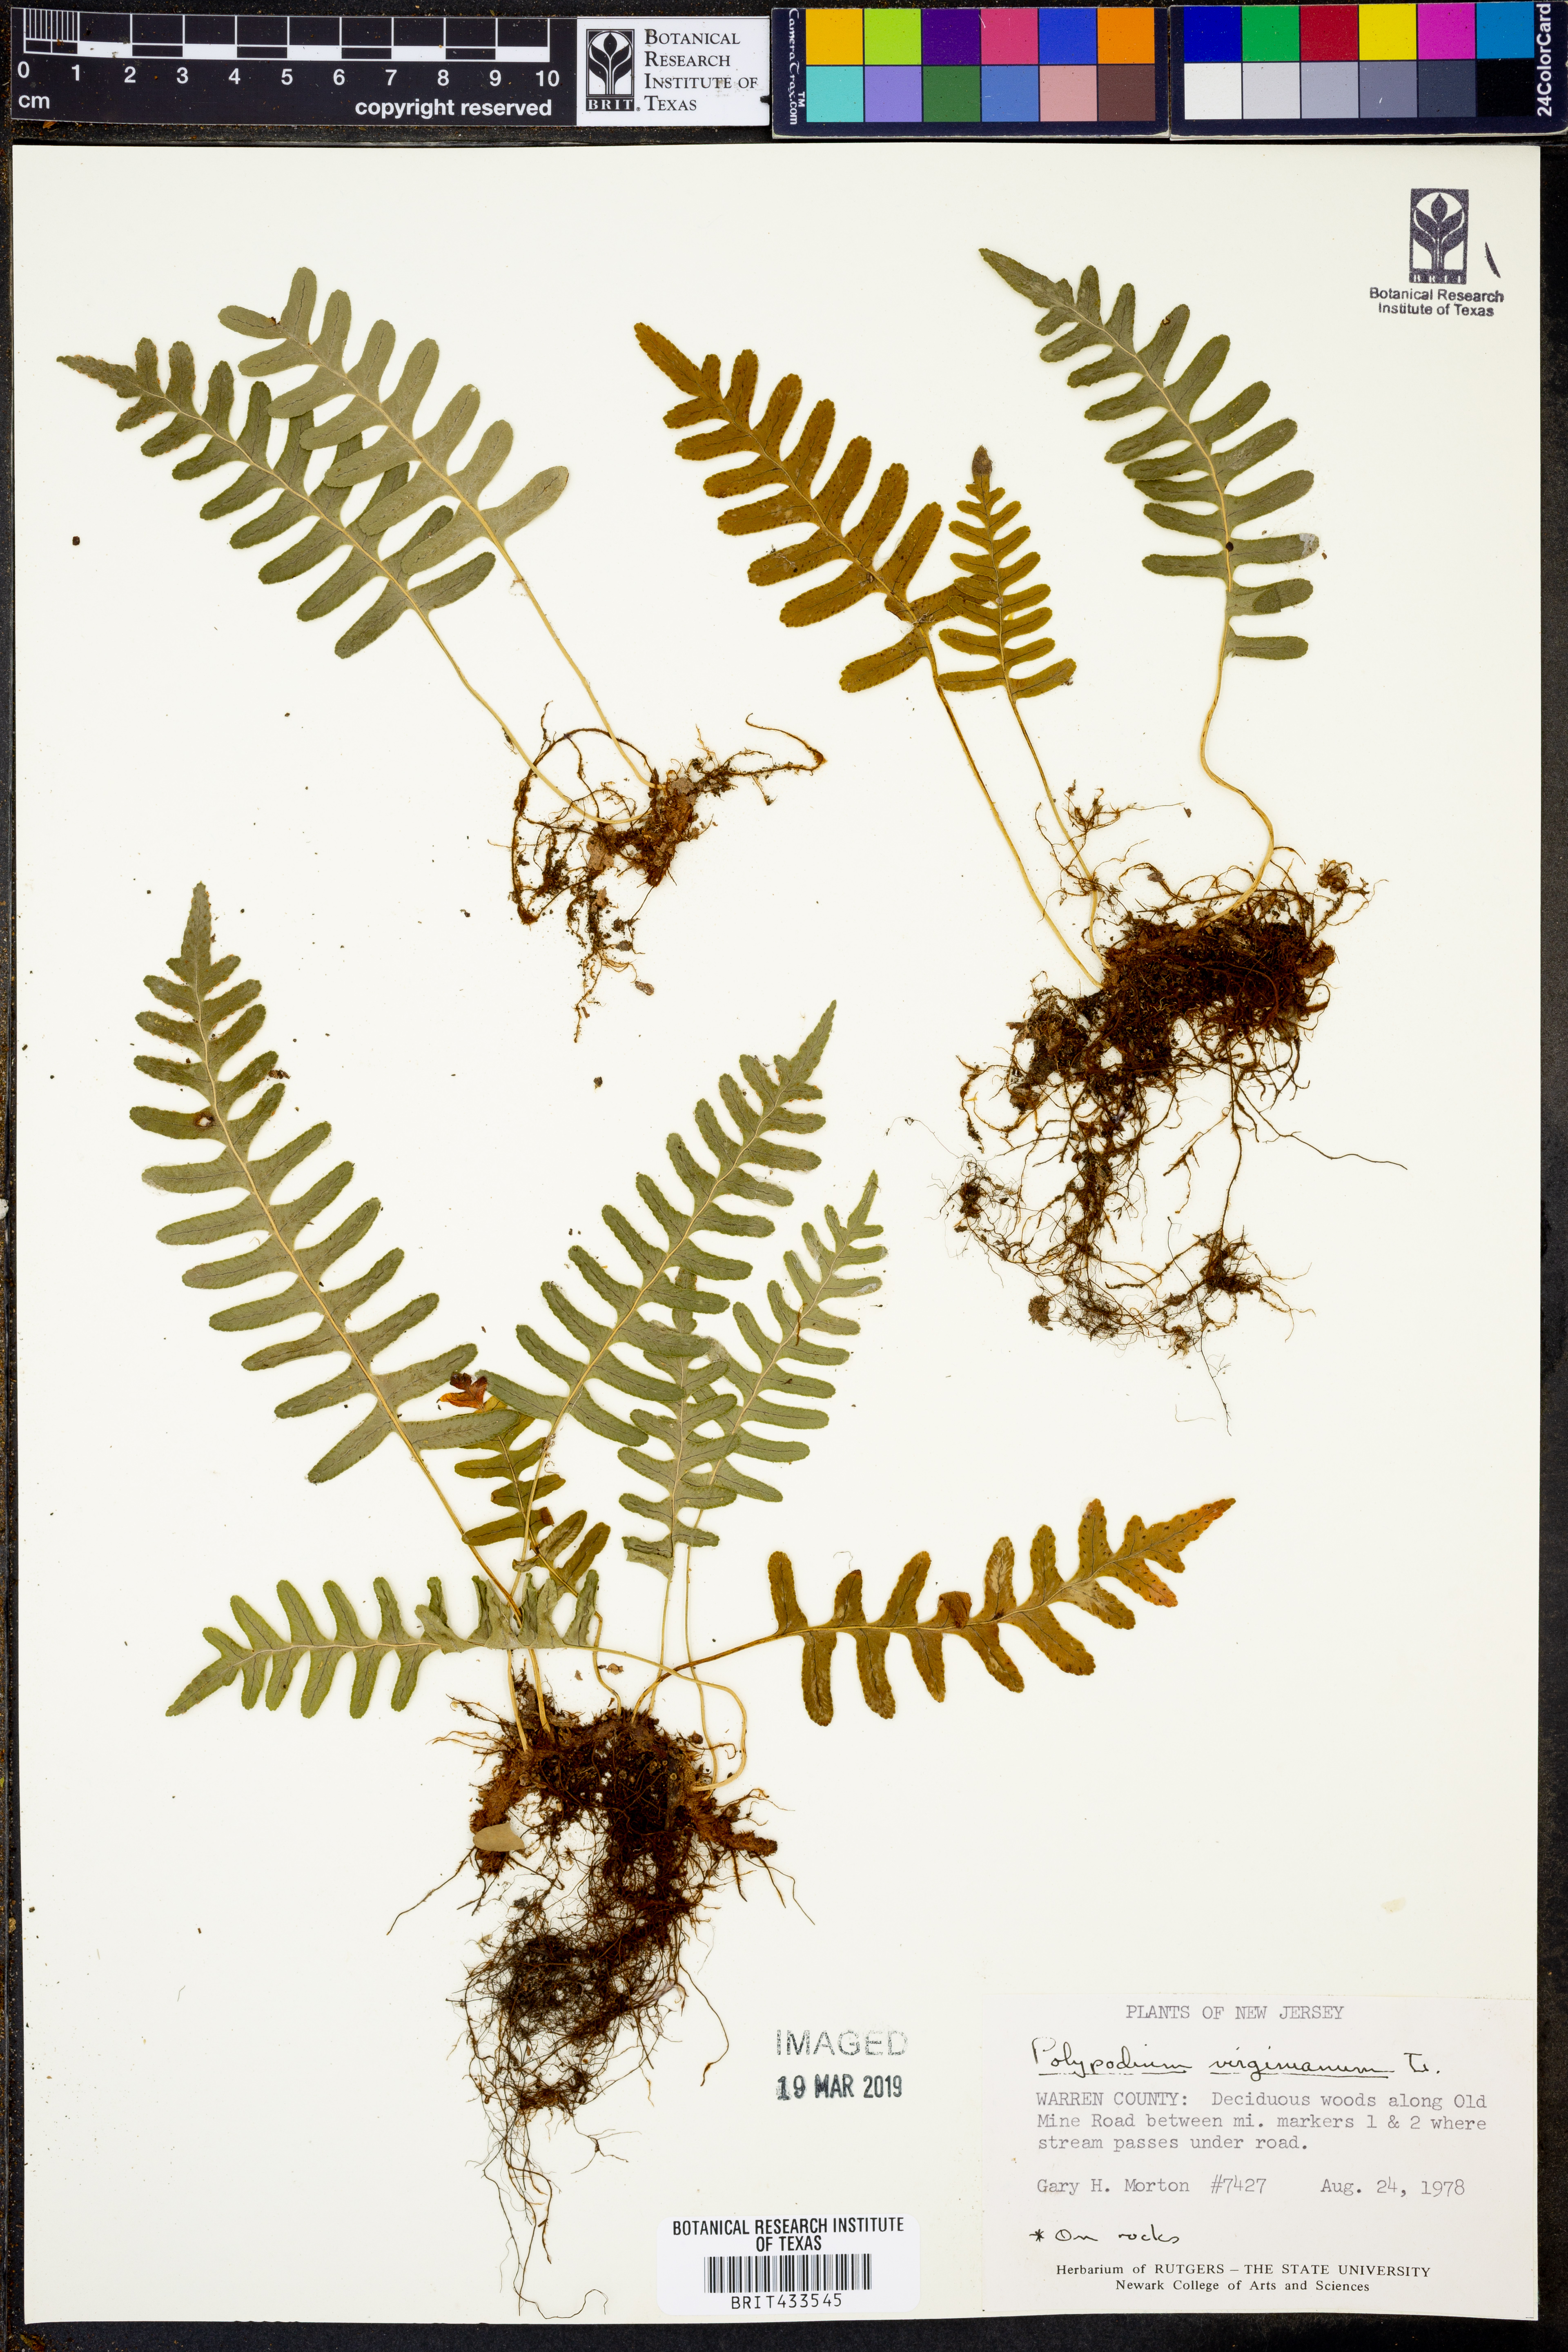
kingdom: Plantae
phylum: Tracheophyta
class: Polypodiopsida
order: Polypodiales
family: Polypodiaceae
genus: Polypodium
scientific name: Polypodium virginianum
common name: American wall fern
